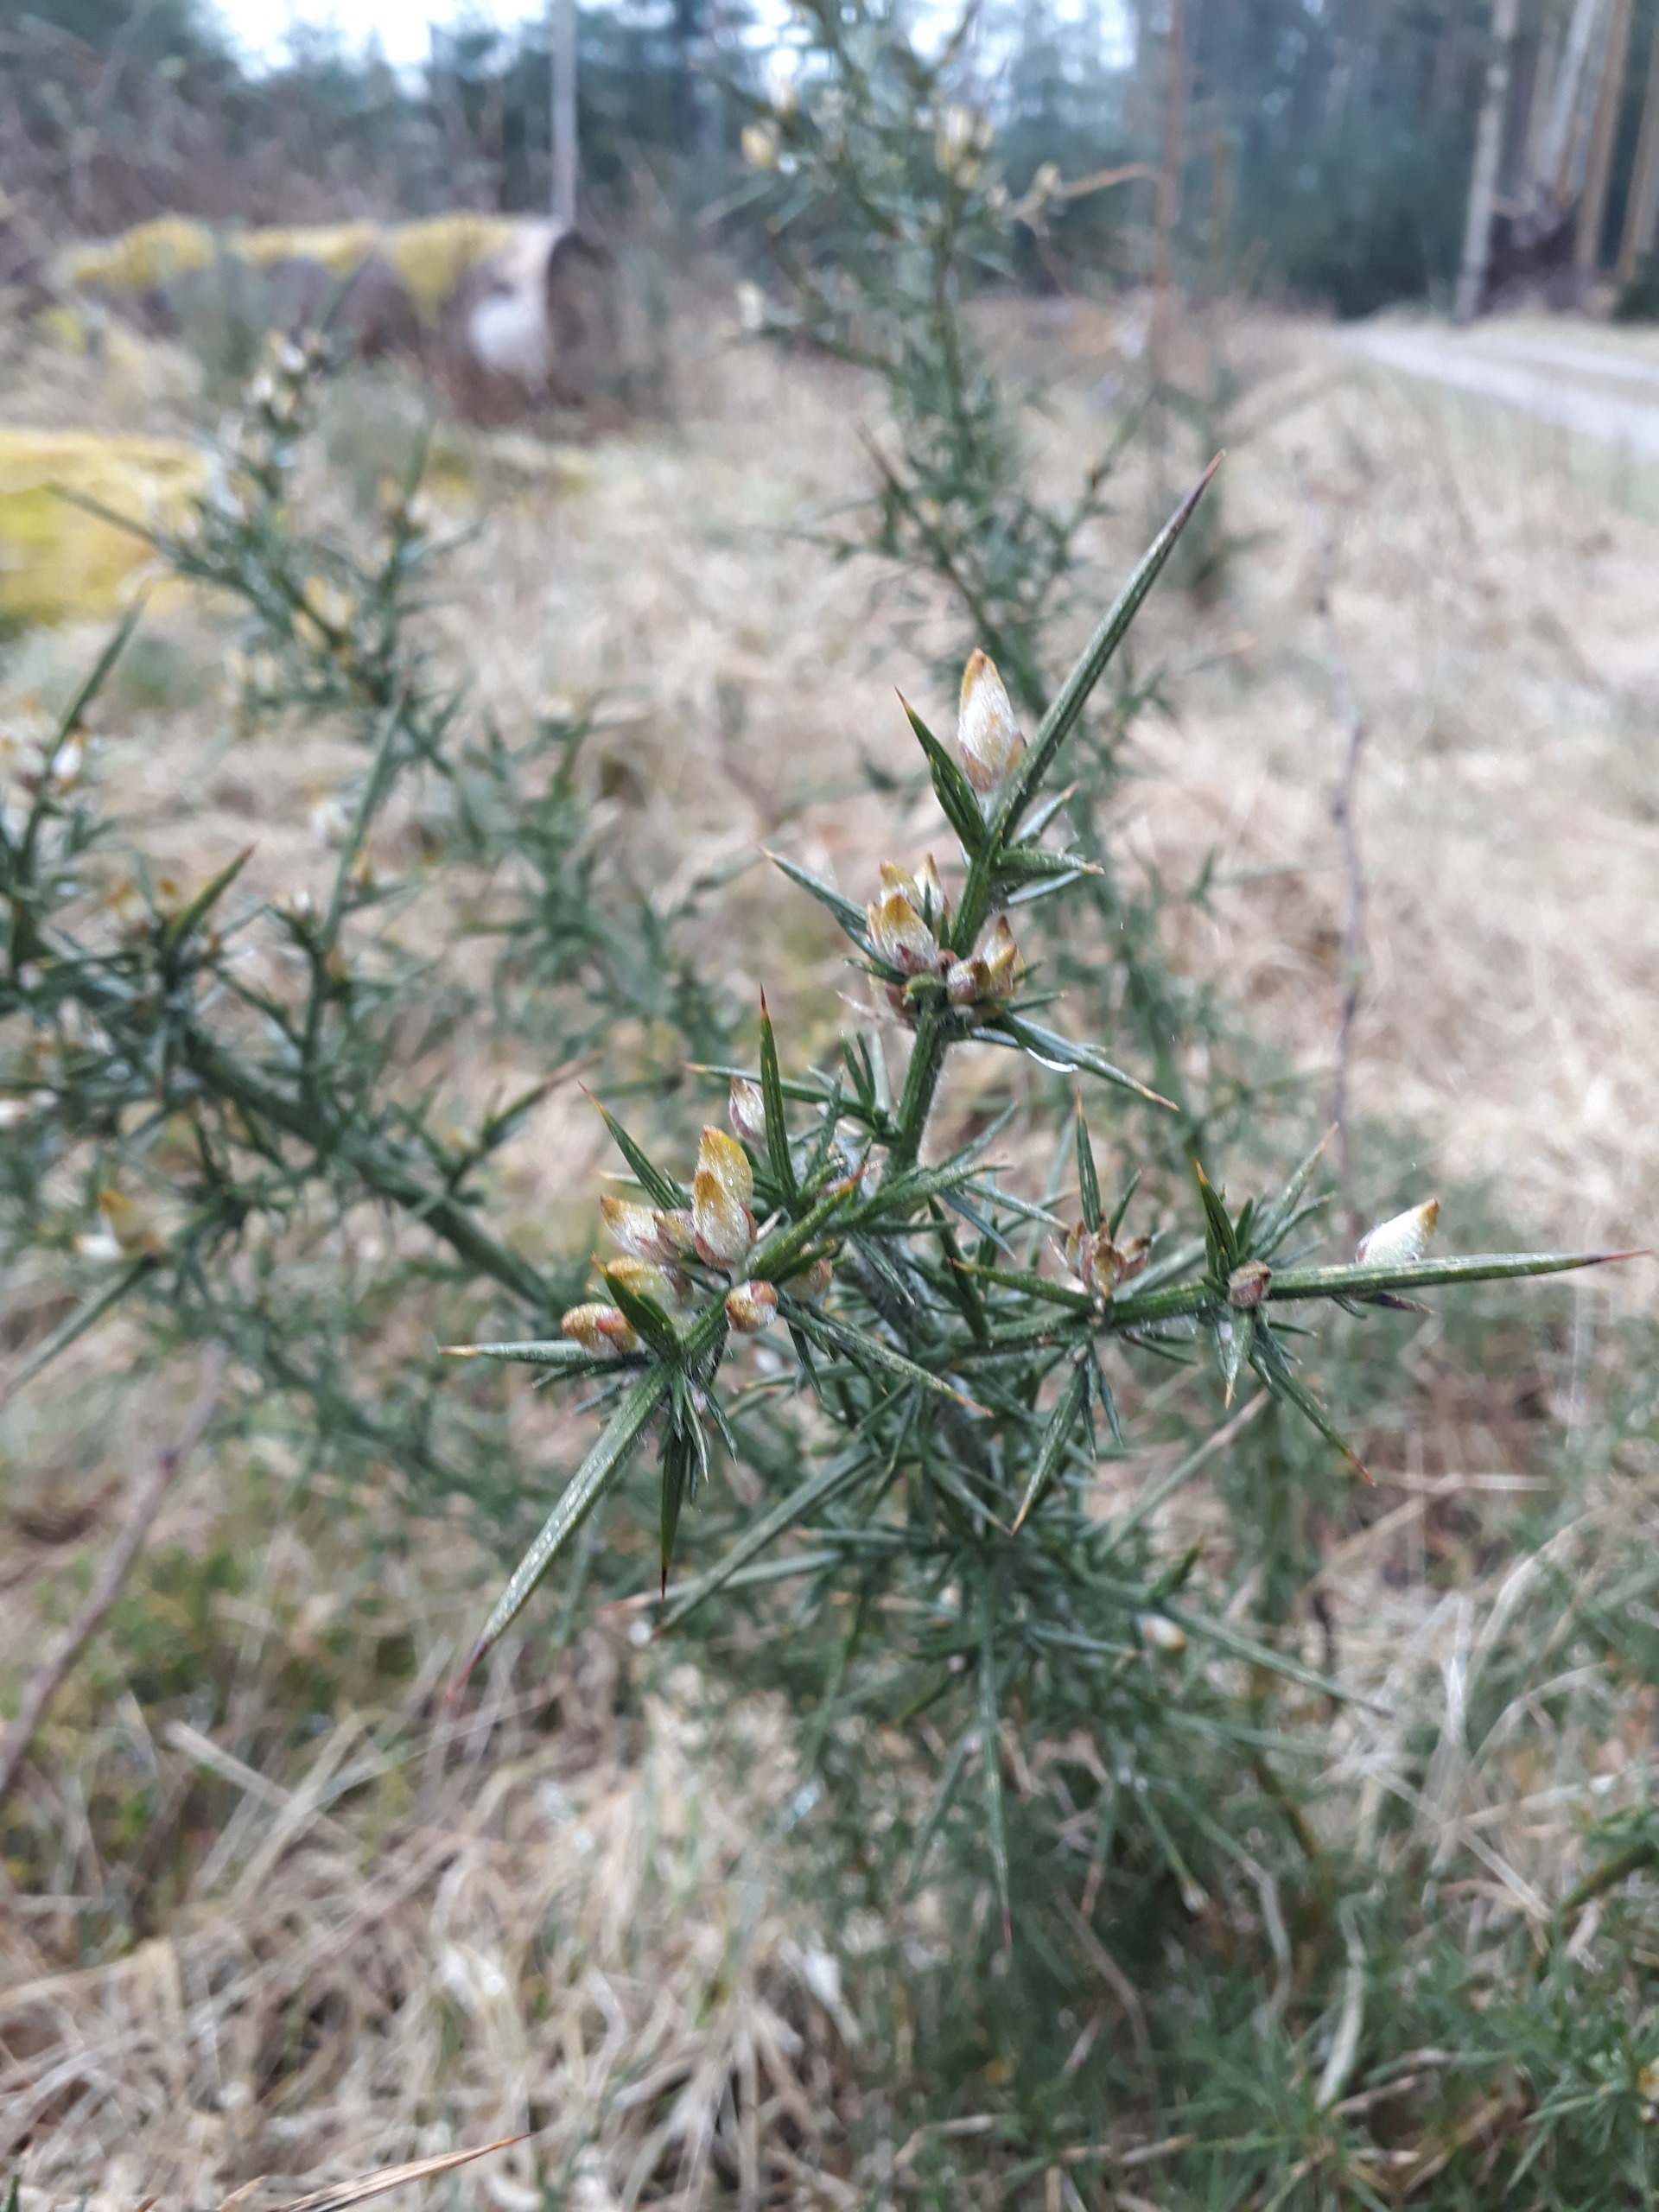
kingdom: Plantae
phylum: Tracheophyta
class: Magnoliopsida
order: Fabales
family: Fabaceae
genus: Ulex
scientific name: Ulex europaeus
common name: Tornblad
